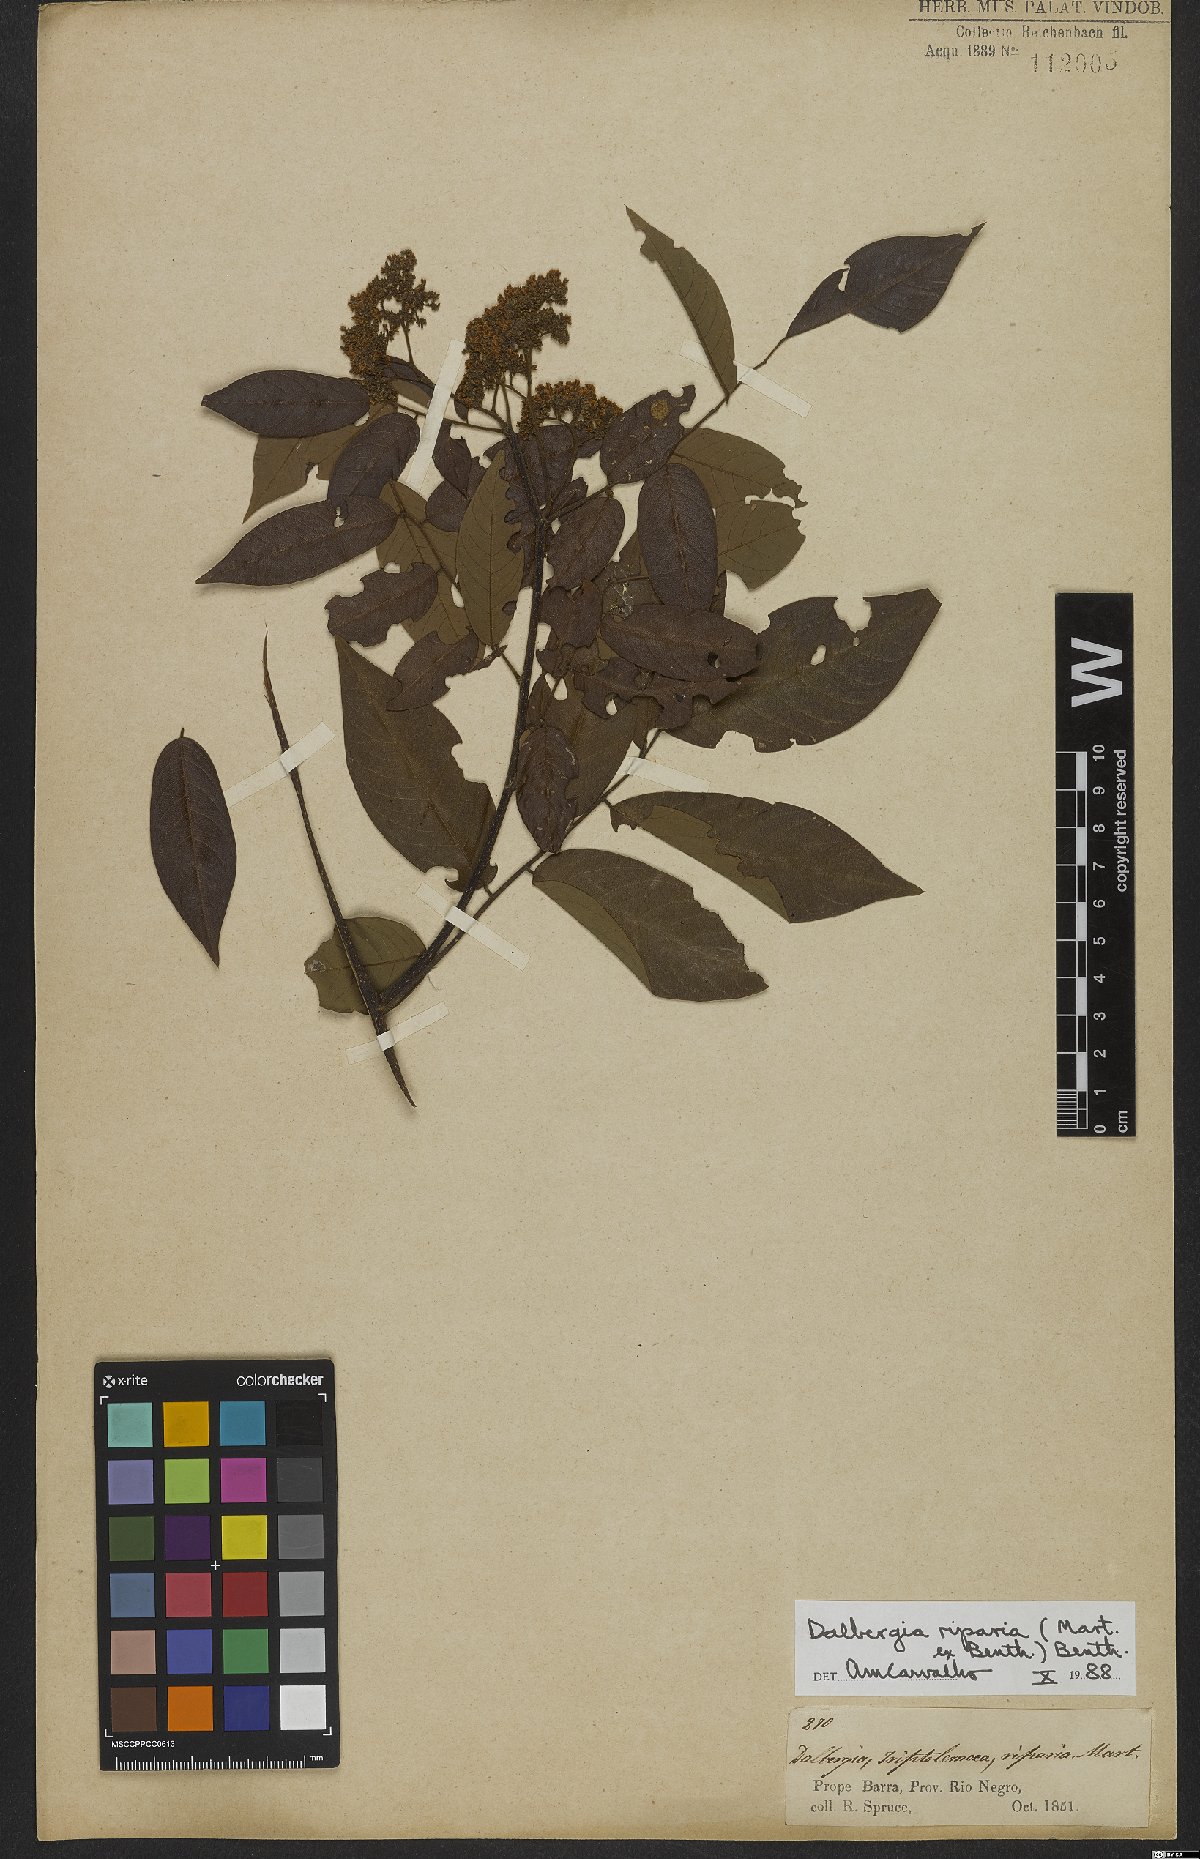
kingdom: Plantae
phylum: Tracheophyta
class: Magnoliopsida
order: Fabales
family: Fabaceae
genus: Dalbergia
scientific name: Dalbergia riparia
